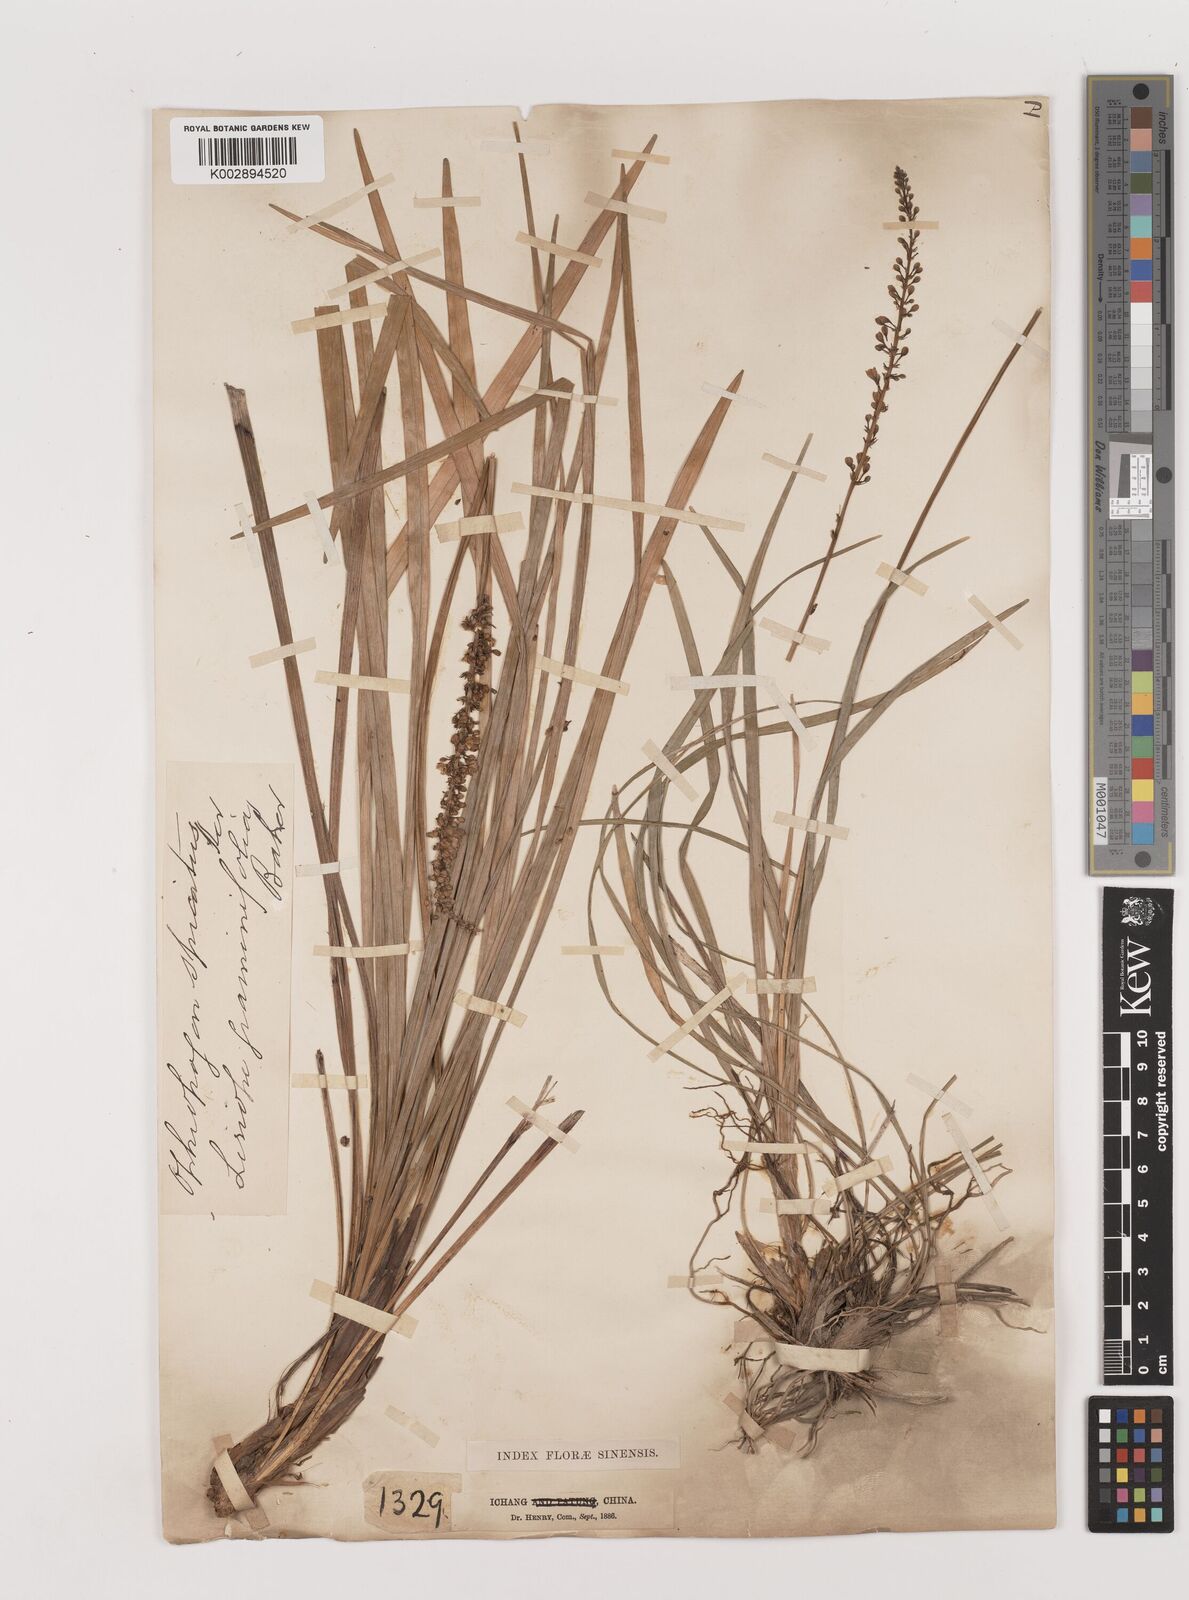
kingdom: Plantae
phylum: Tracheophyta
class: Liliopsida
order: Asparagales
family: Asparagaceae
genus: Liriope
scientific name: Liriope spicata
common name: Creeping liriope
